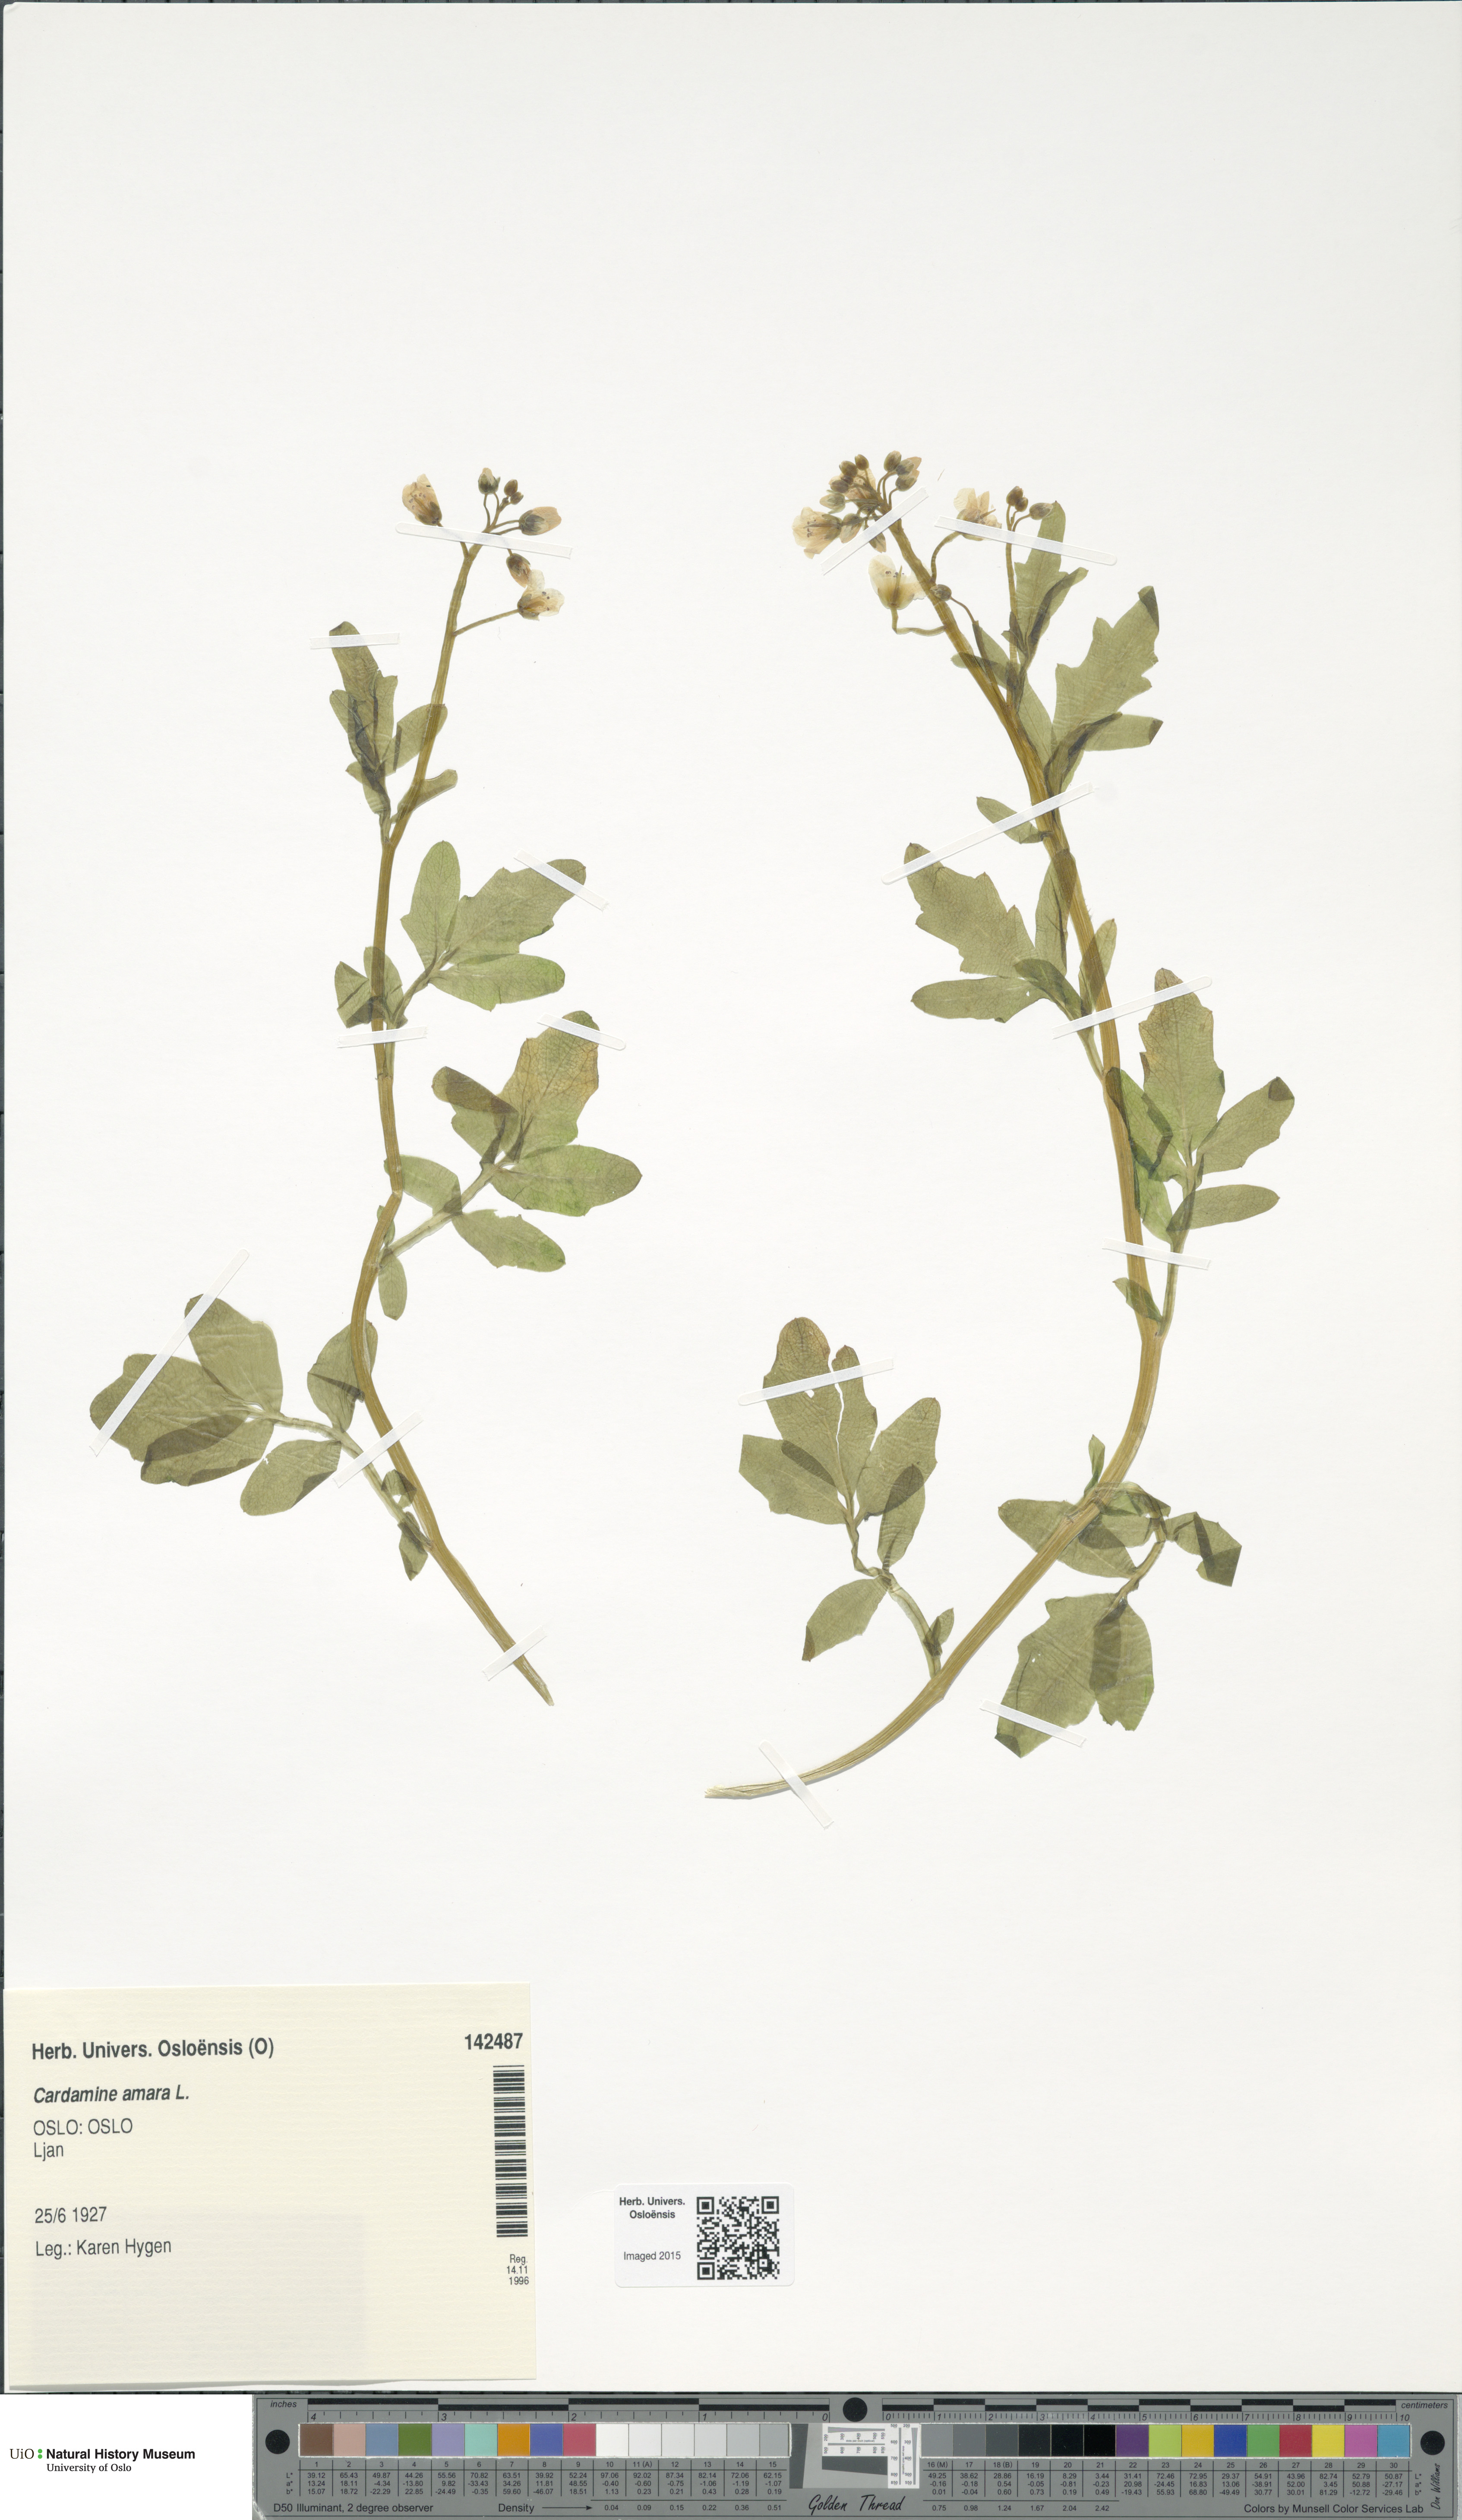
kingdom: Plantae
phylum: Tracheophyta
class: Magnoliopsida
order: Brassicales
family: Brassicaceae
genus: Cardamine
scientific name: Cardamine amara
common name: Large bitter-cress
